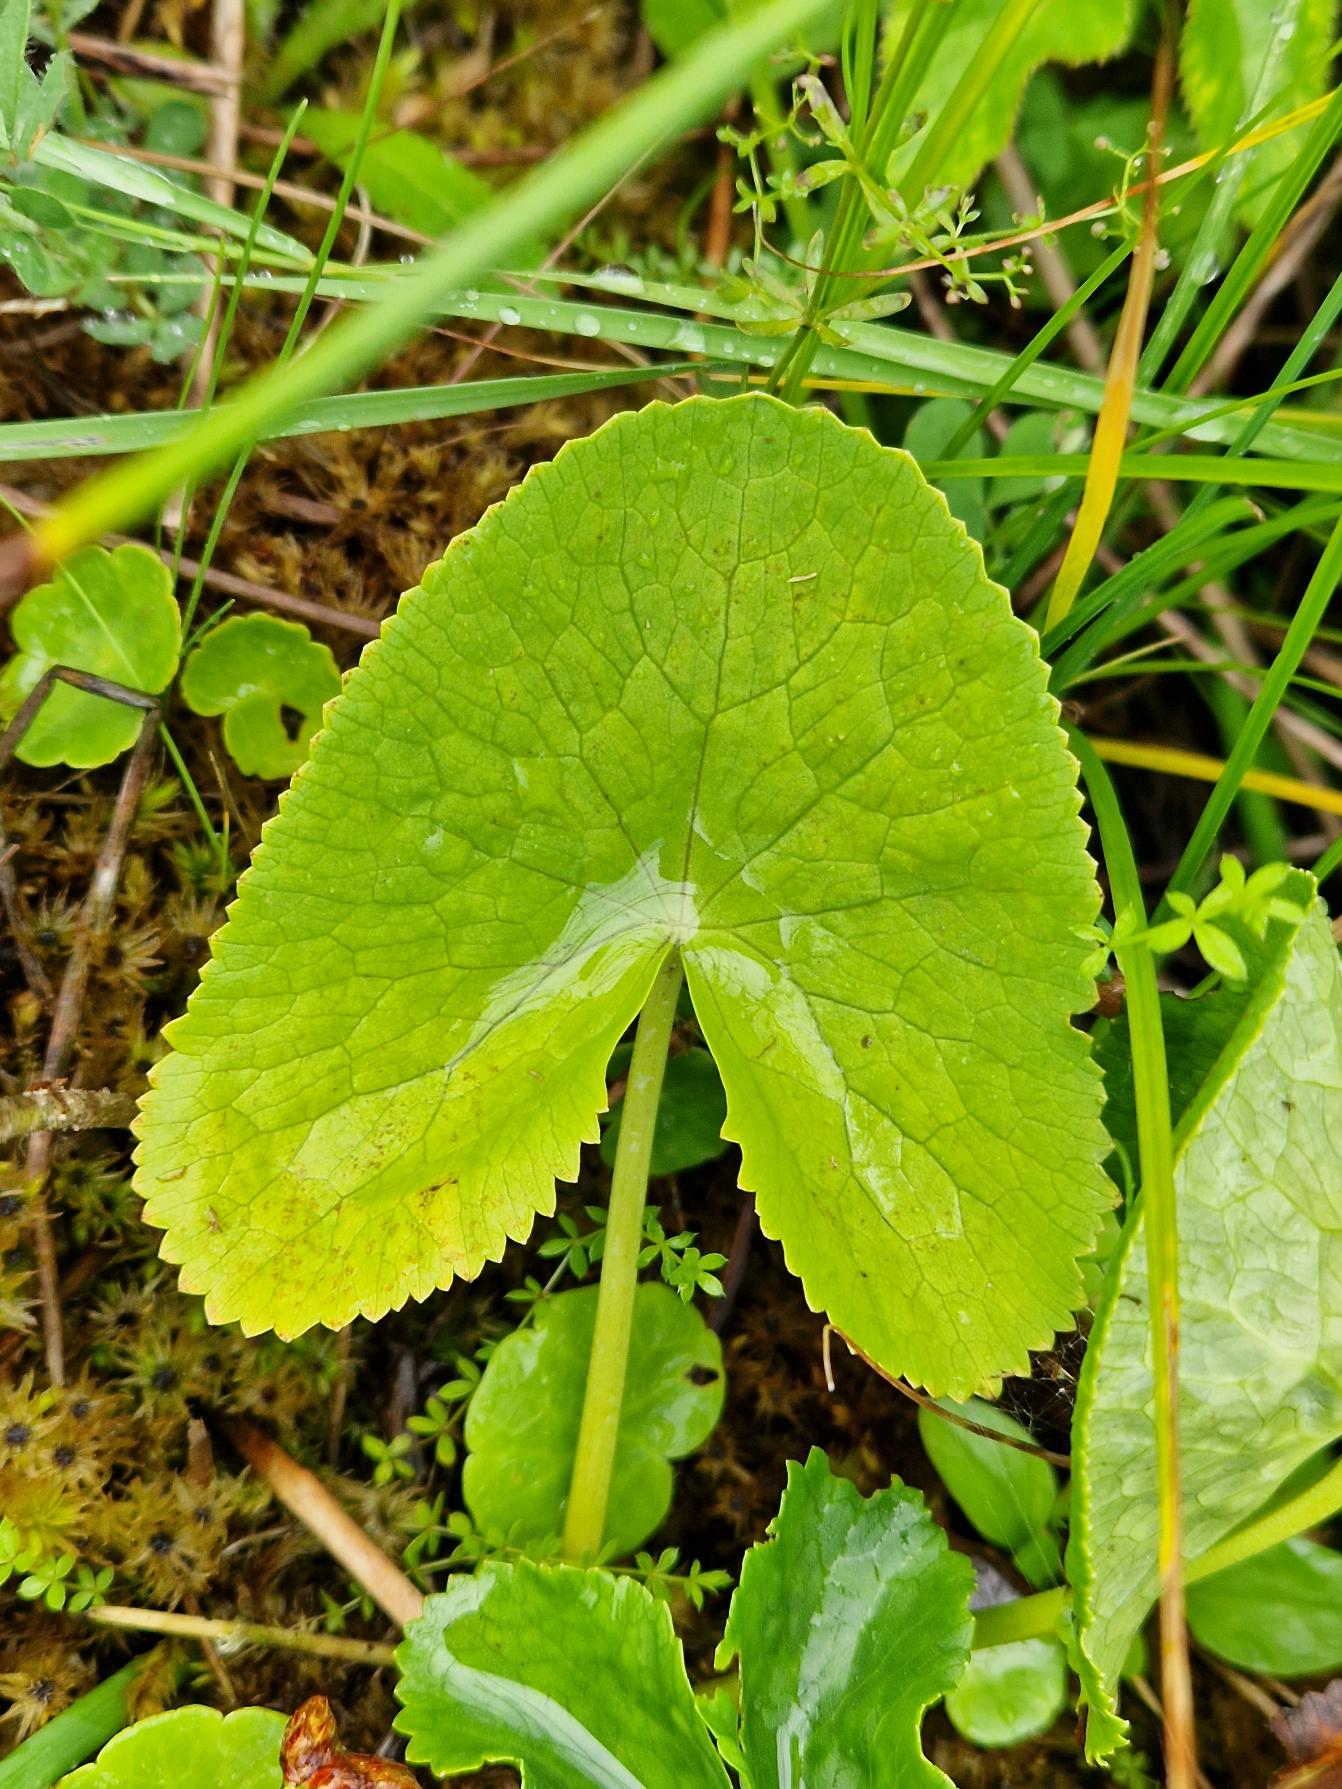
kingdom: Plantae
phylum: Tracheophyta
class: Magnoliopsida
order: Ranunculales
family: Ranunculaceae
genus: Caltha
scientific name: Caltha palustris
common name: Eng-kabbeleje
